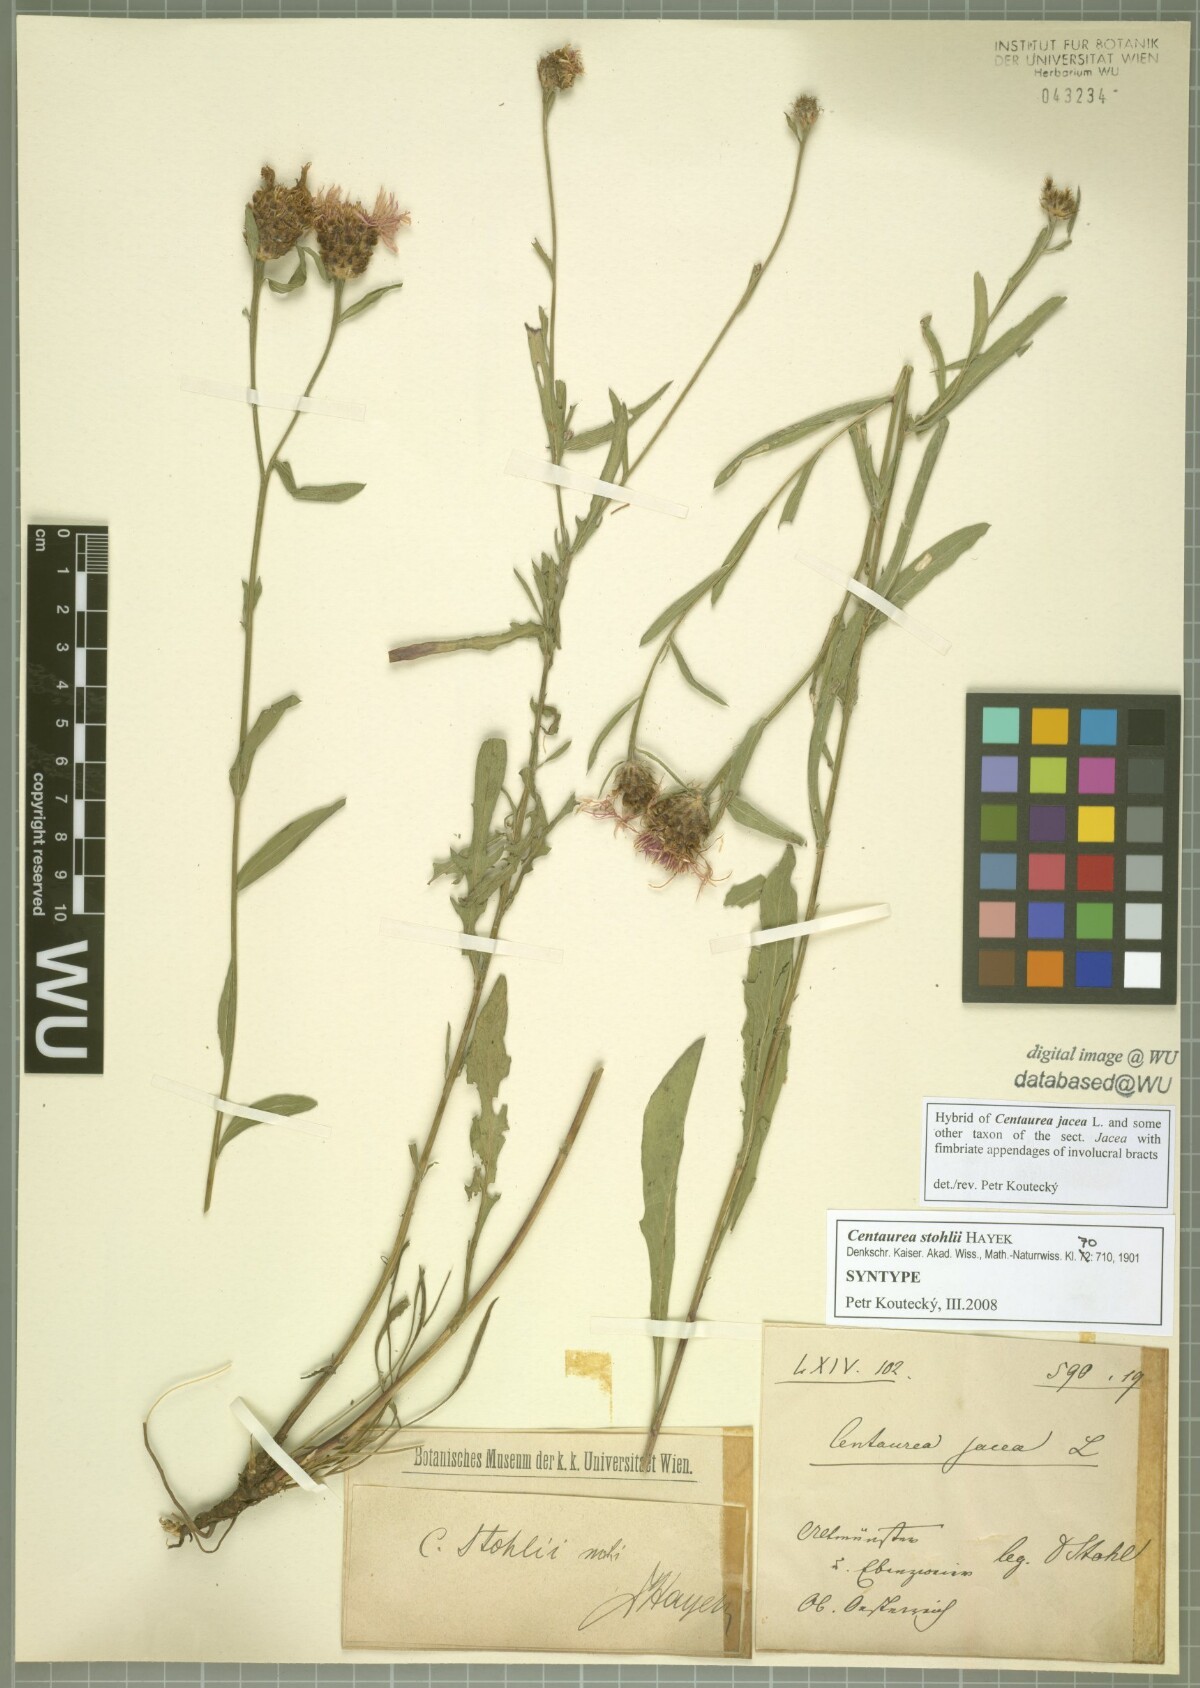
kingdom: Plantae
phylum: Tracheophyta
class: Magnoliopsida
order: Asterales
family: Asteraceae
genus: Centaurea
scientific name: Centaurea stohlii
